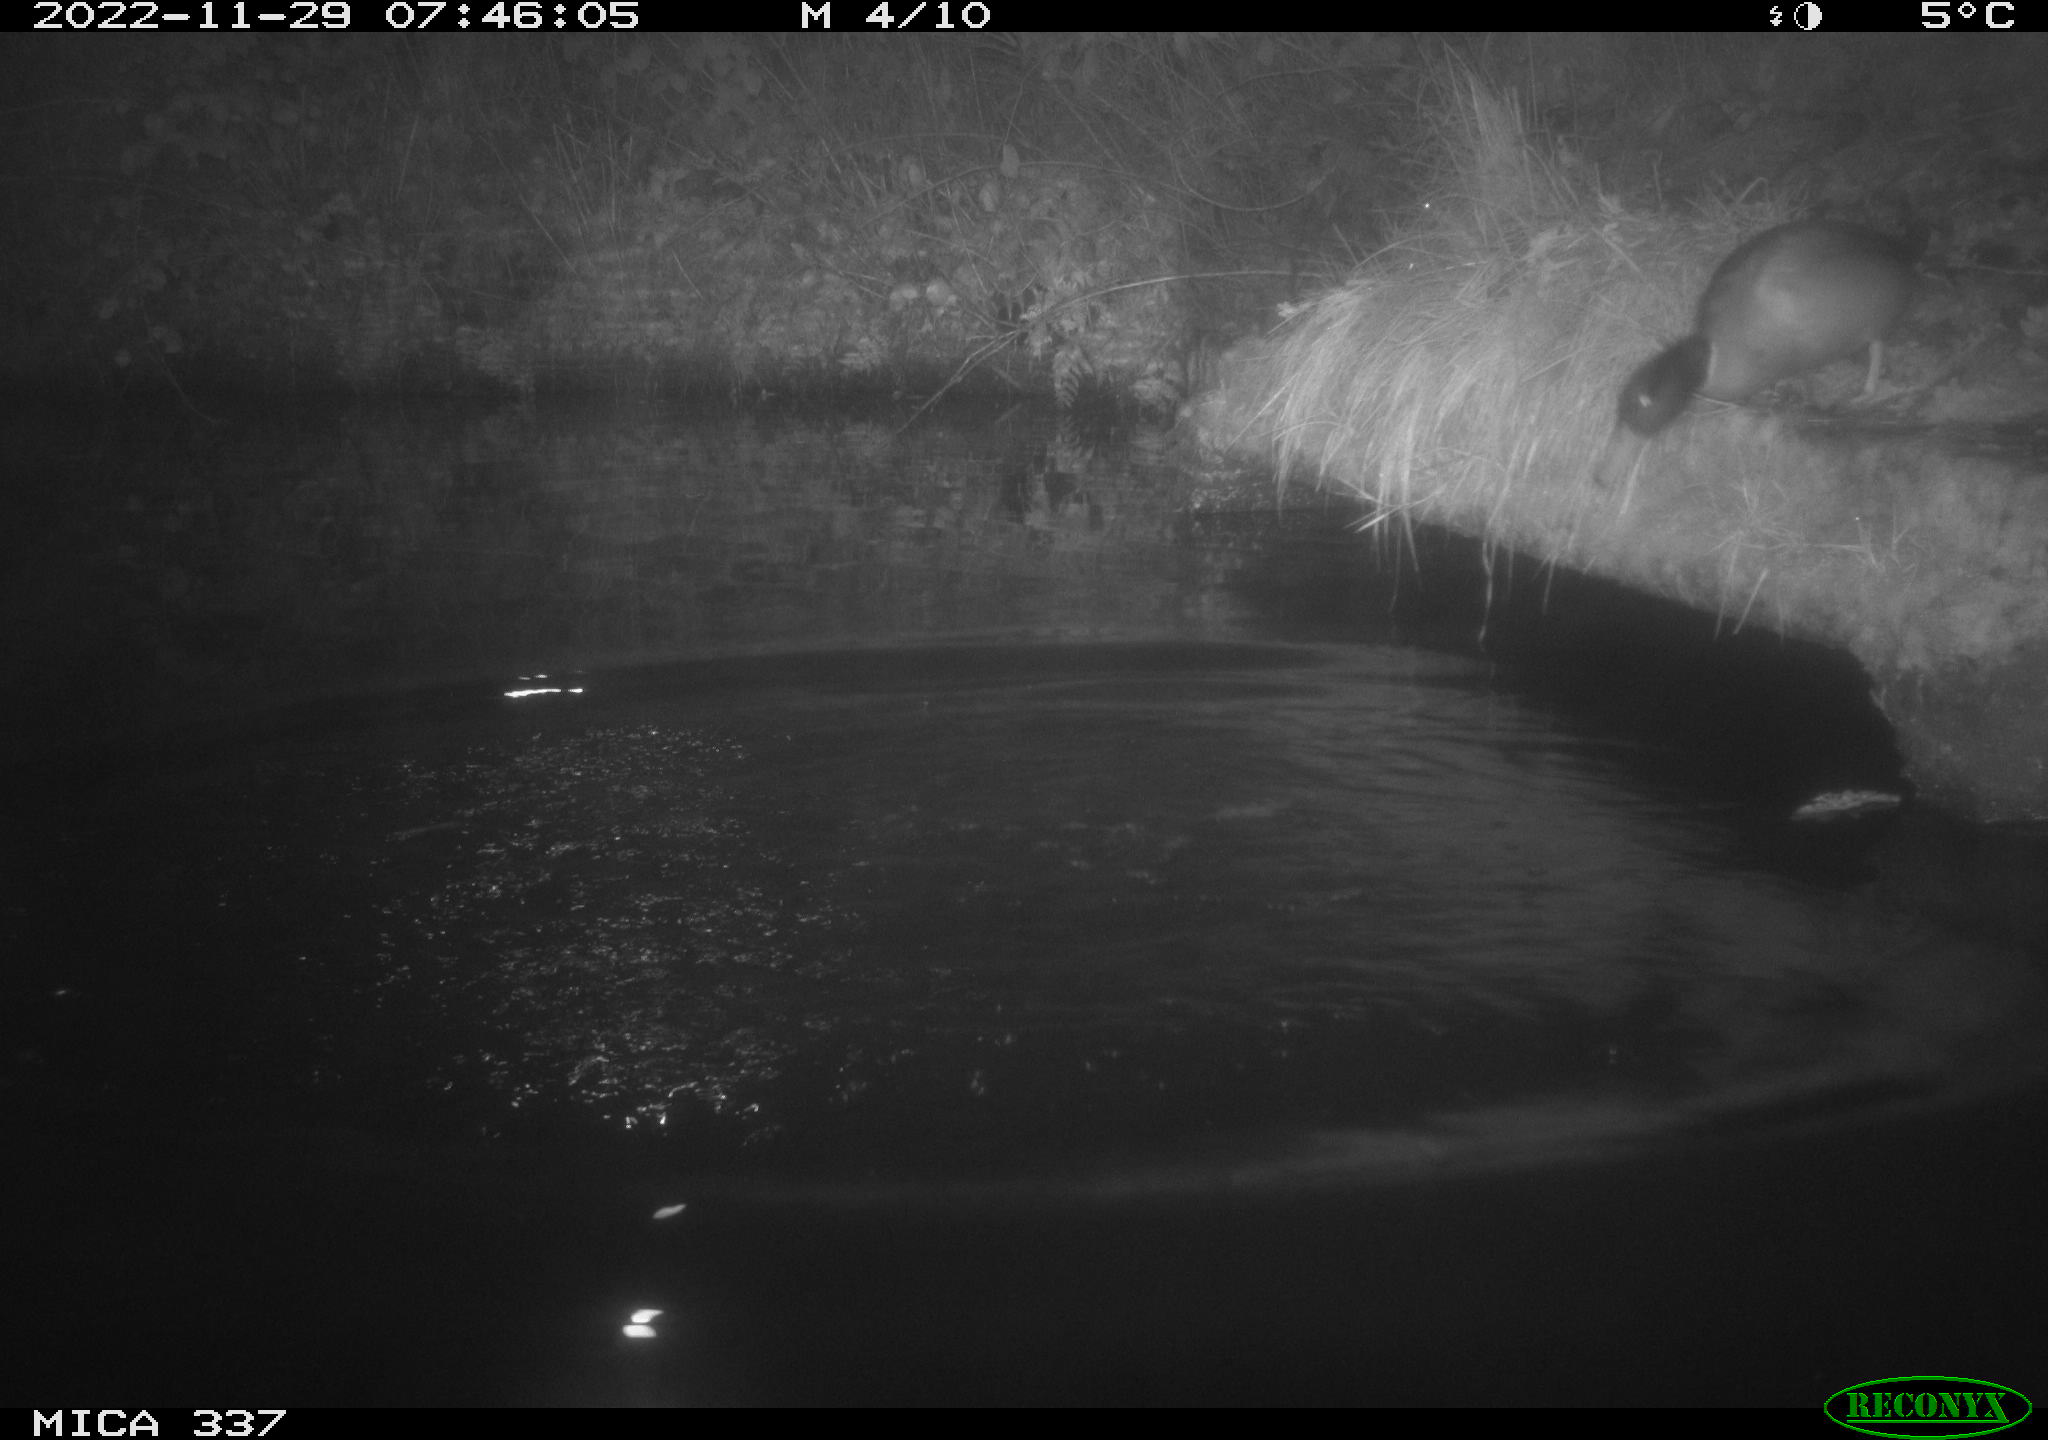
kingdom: Animalia
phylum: Chordata
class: Aves
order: Anseriformes
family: Anatidae
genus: Anas
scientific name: Anas
